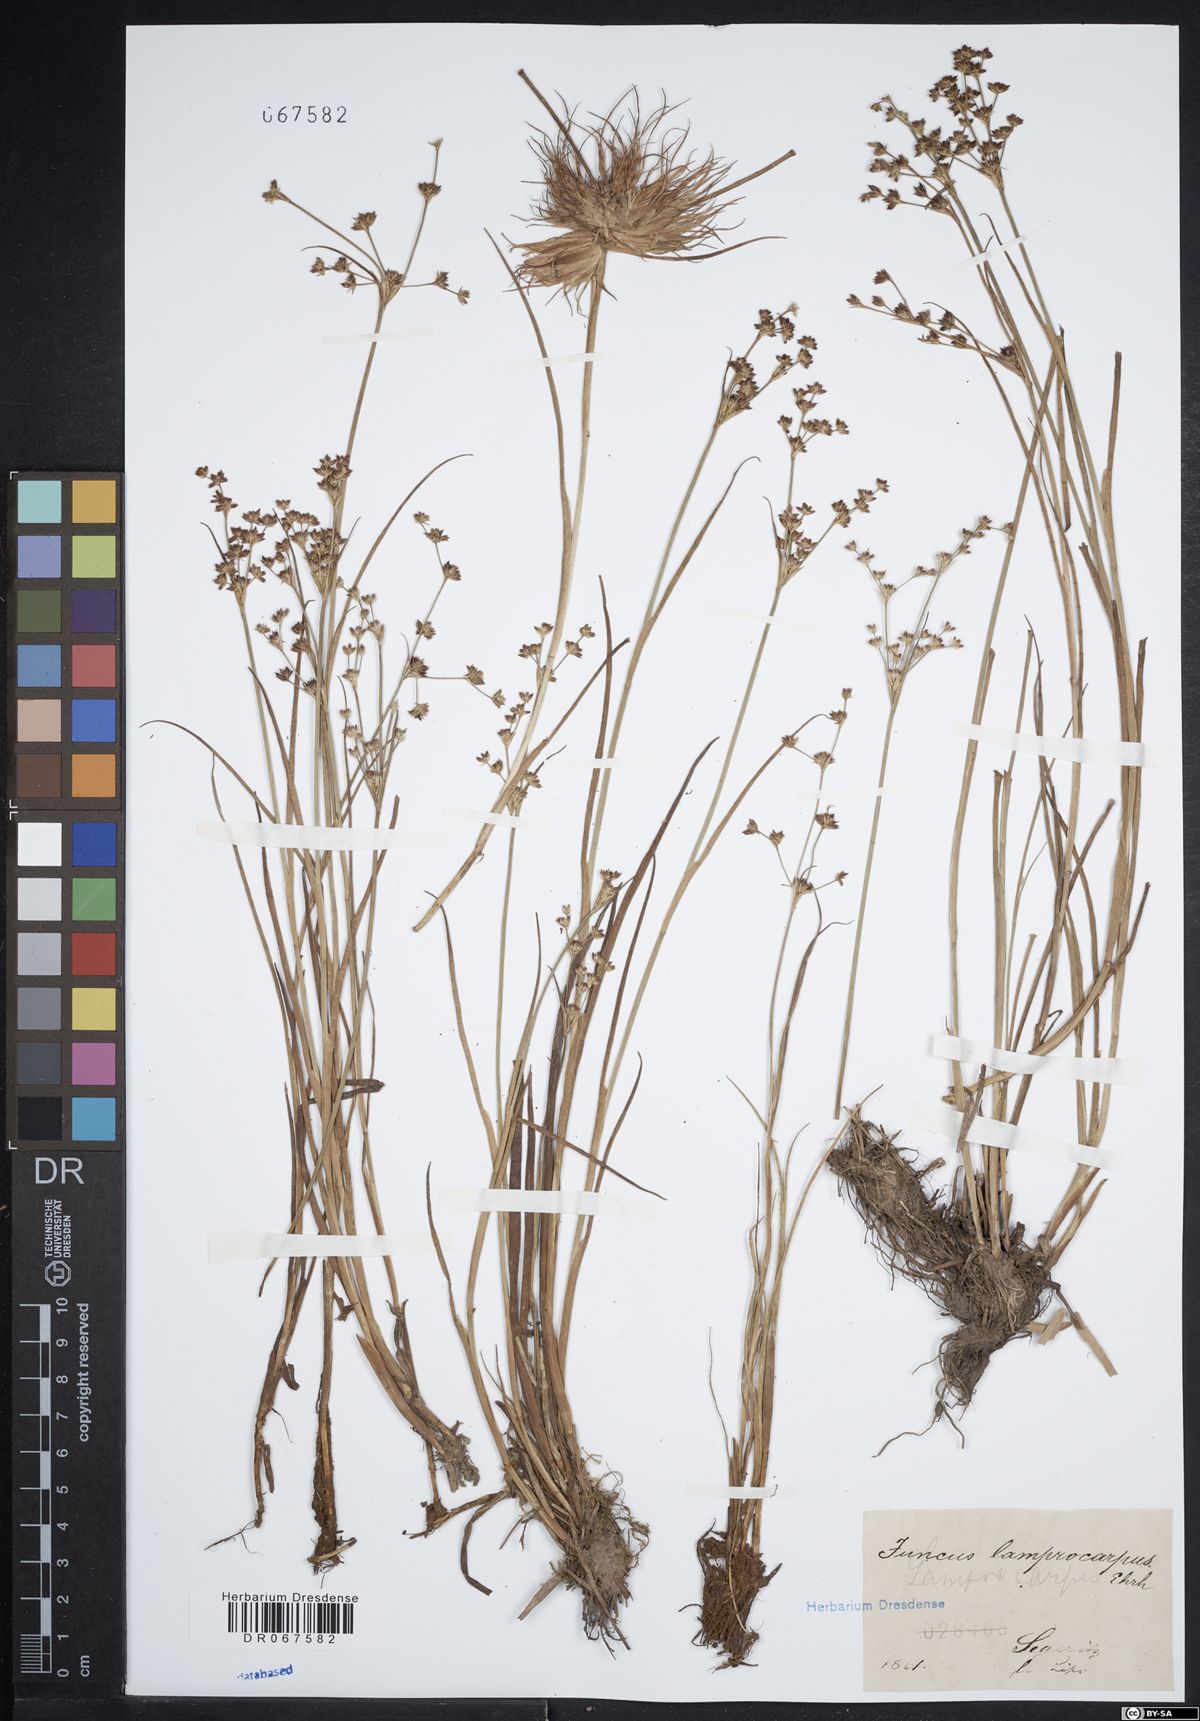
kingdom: Plantae
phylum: Tracheophyta
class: Liliopsida
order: Poales
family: Juncaceae
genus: Juncus
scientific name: Juncus articulatus
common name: Jointed rush
